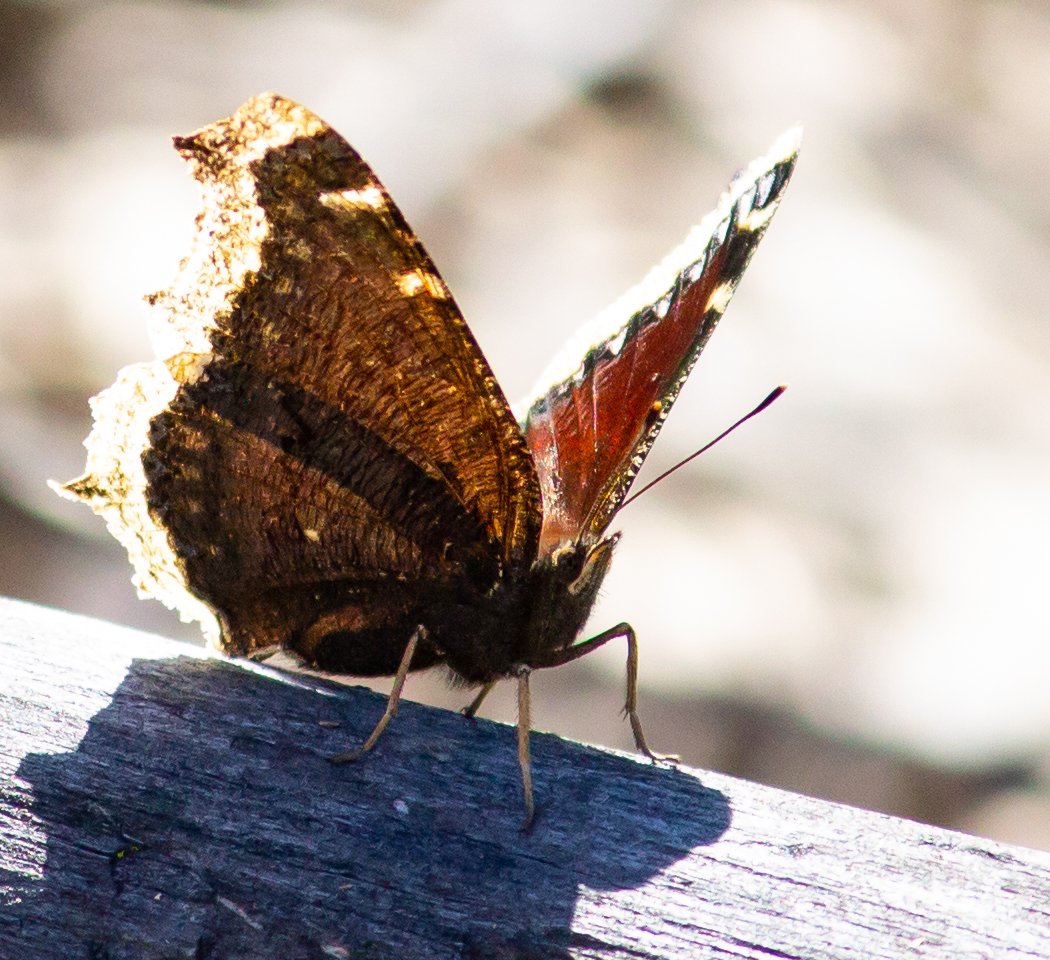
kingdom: Animalia
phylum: Arthropoda
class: Insecta
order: Lepidoptera
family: Nymphalidae
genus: Nymphalis
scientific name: Nymphalis antiopa
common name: Mourning Cloak
